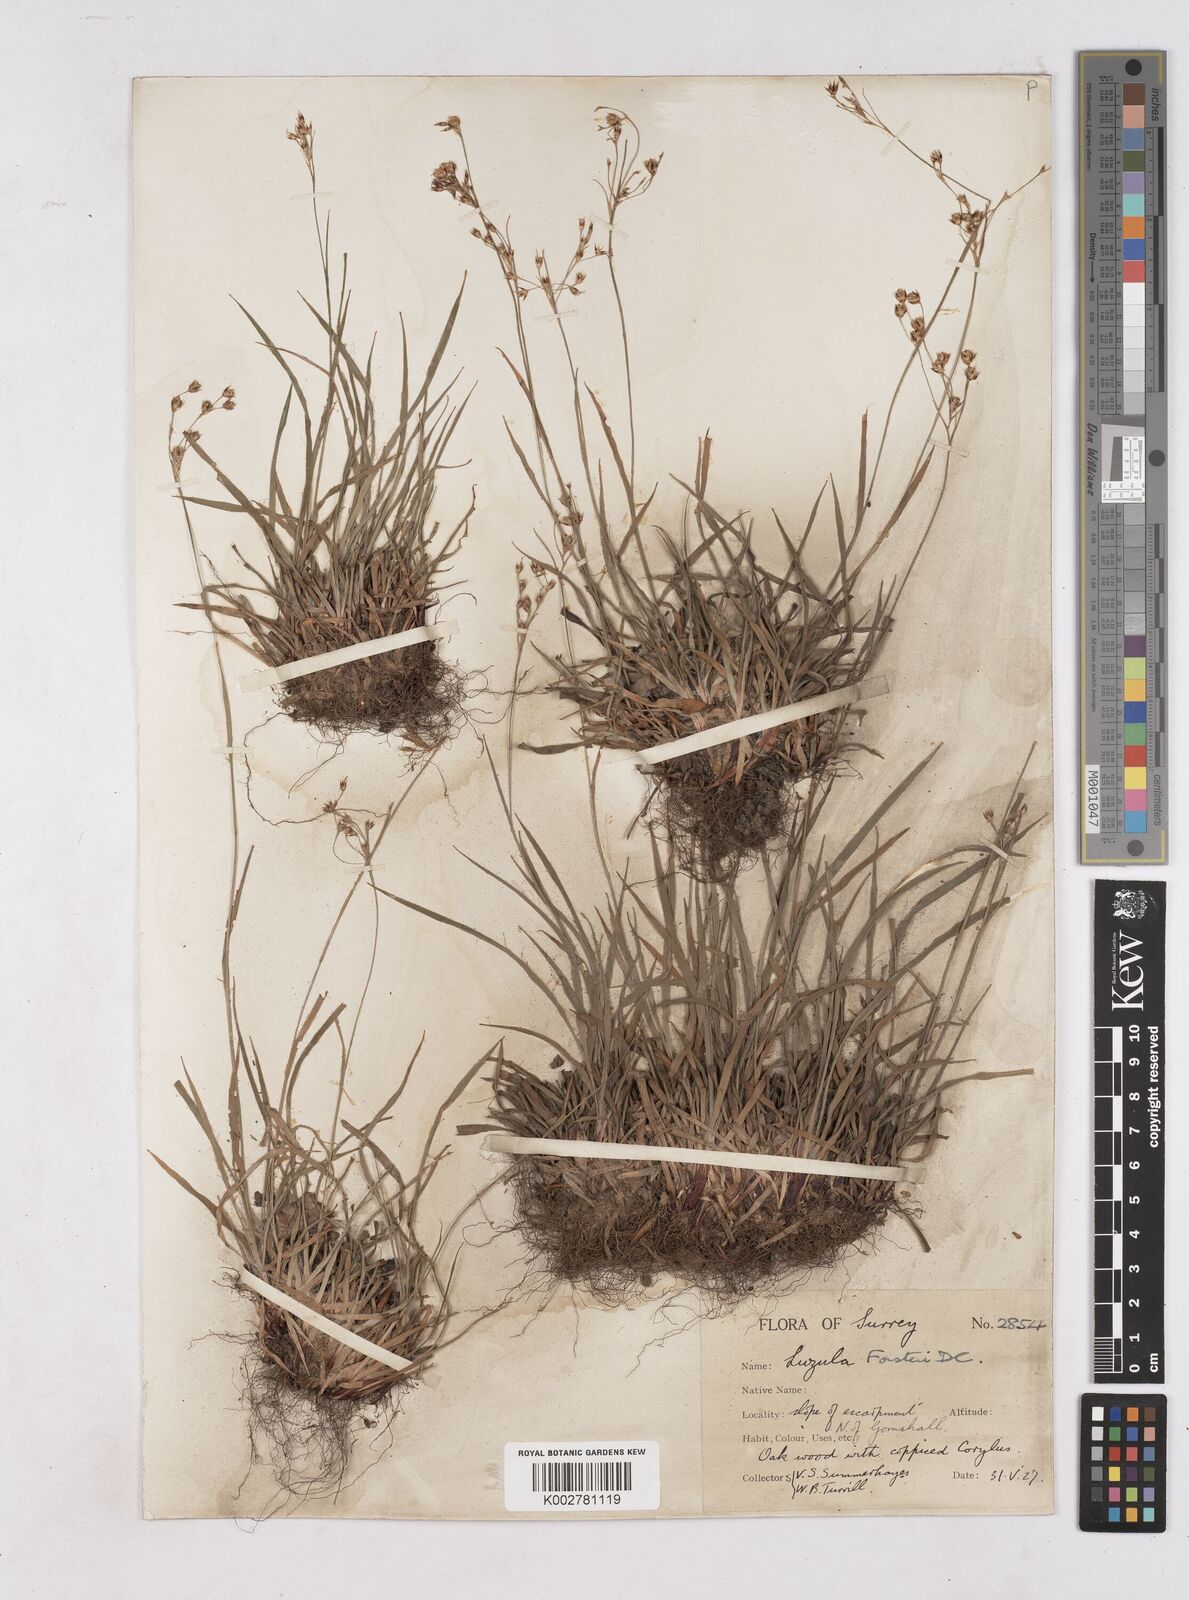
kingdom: Plantae
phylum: Tracheophyta
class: Liliopsida
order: Poales
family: Juncaceae
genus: Luzula
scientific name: Luzula forsteri
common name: Southern wood-rush
